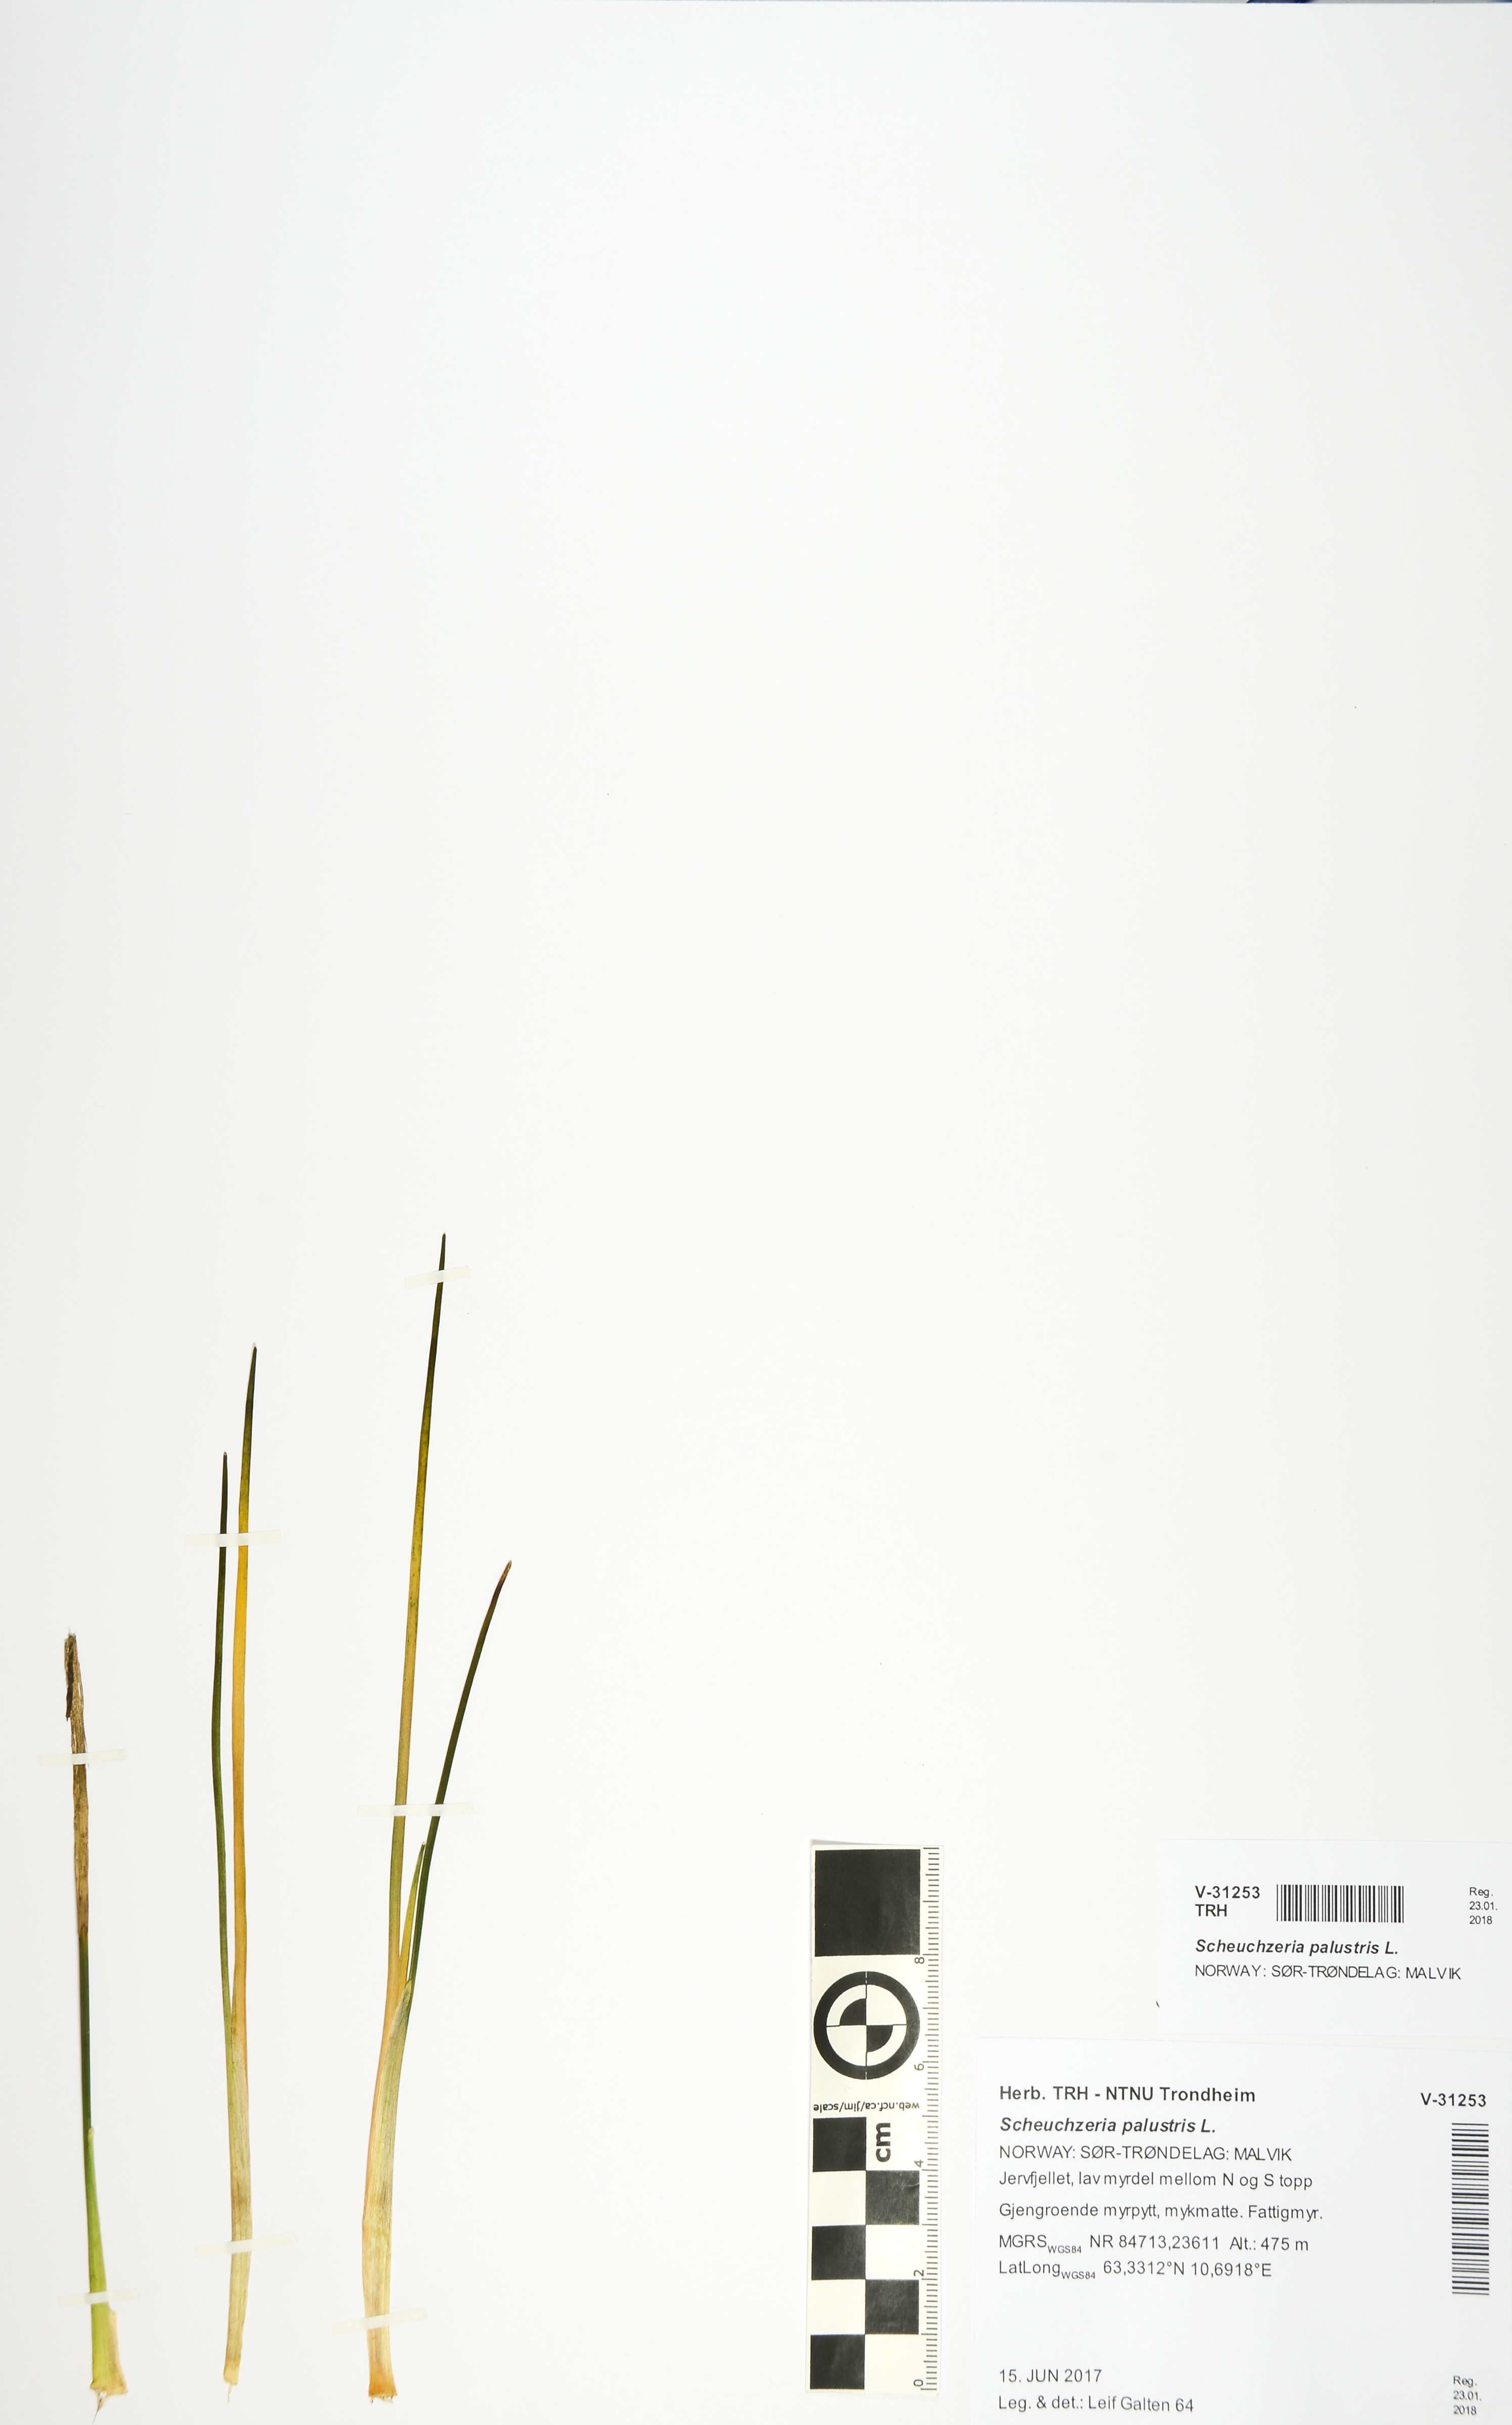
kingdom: Plantae
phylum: Tracheophyta
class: Liliopsida
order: Alismatales
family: Scheuchzeriaceae
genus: Scheuchzeria
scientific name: Scheuchzeria palustris
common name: Rannoch-rush
